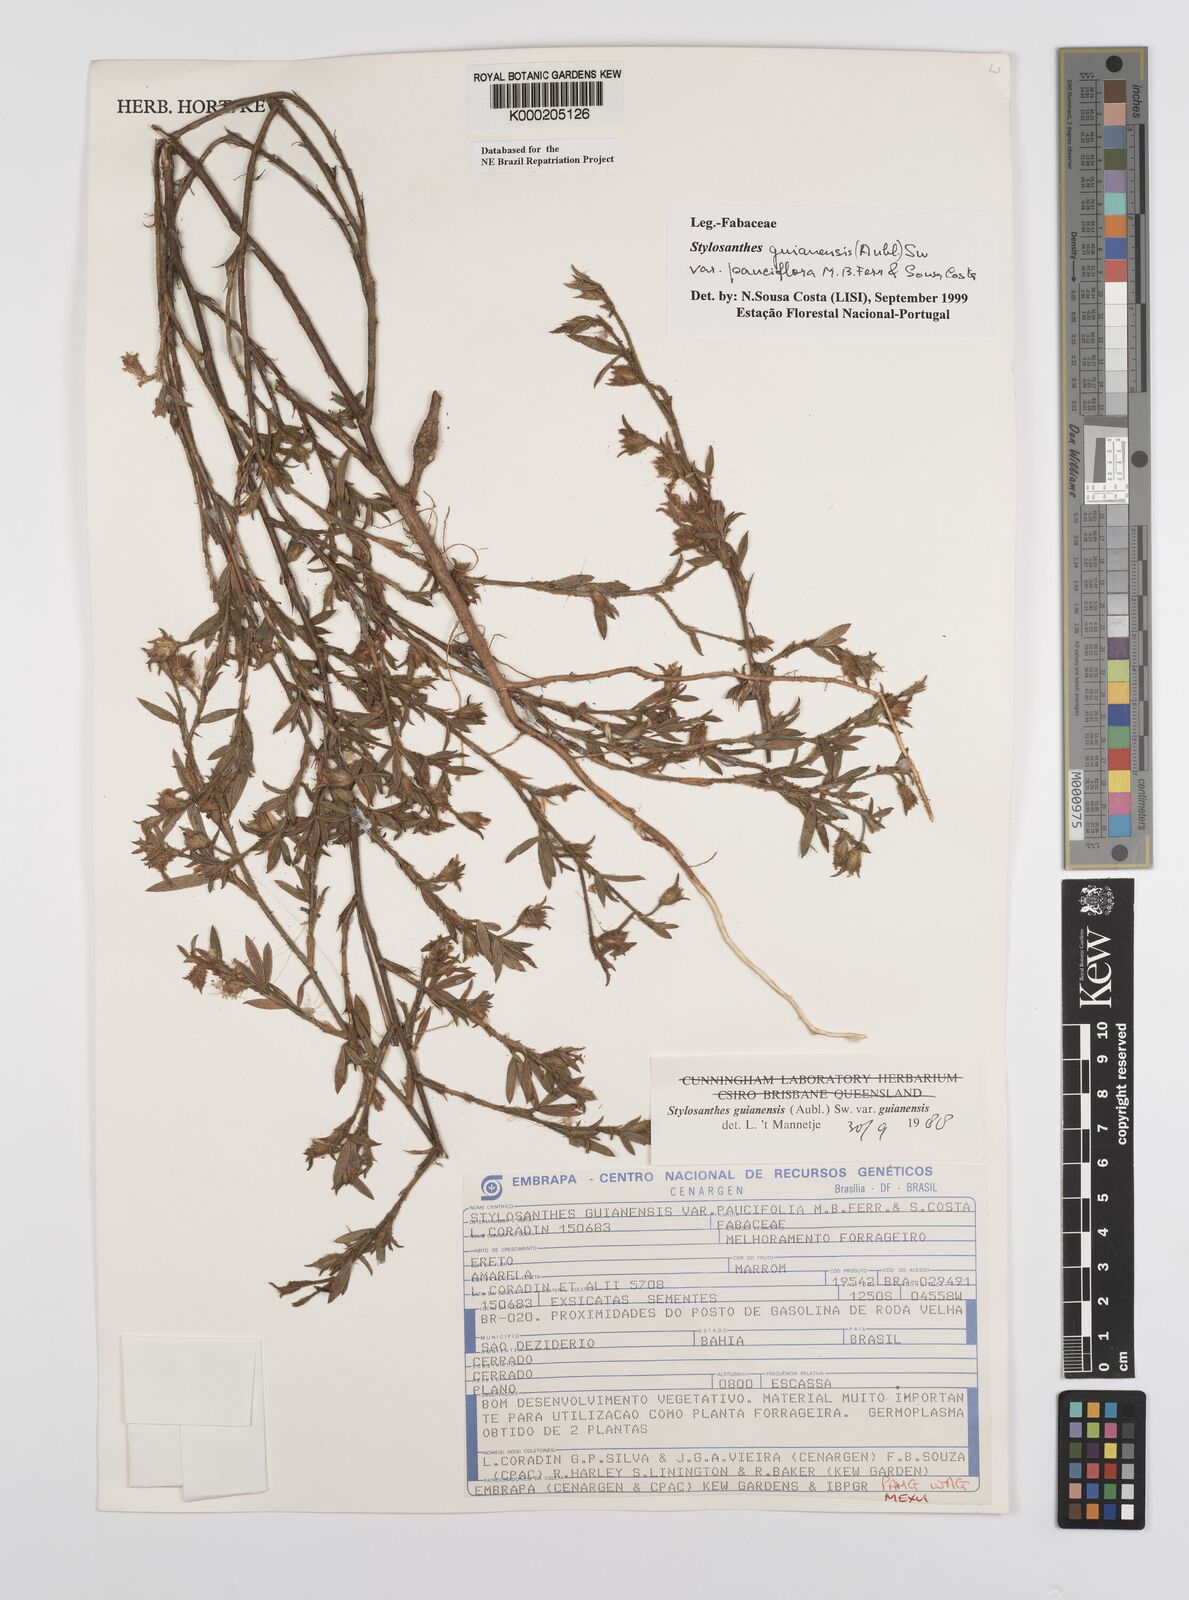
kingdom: Plantae
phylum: Tracheophyta
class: Magnoliopsida
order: Fabales
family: Fabaceae
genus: Stylosanthes
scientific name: Stylosanthes guianensis
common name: Pencil flower
